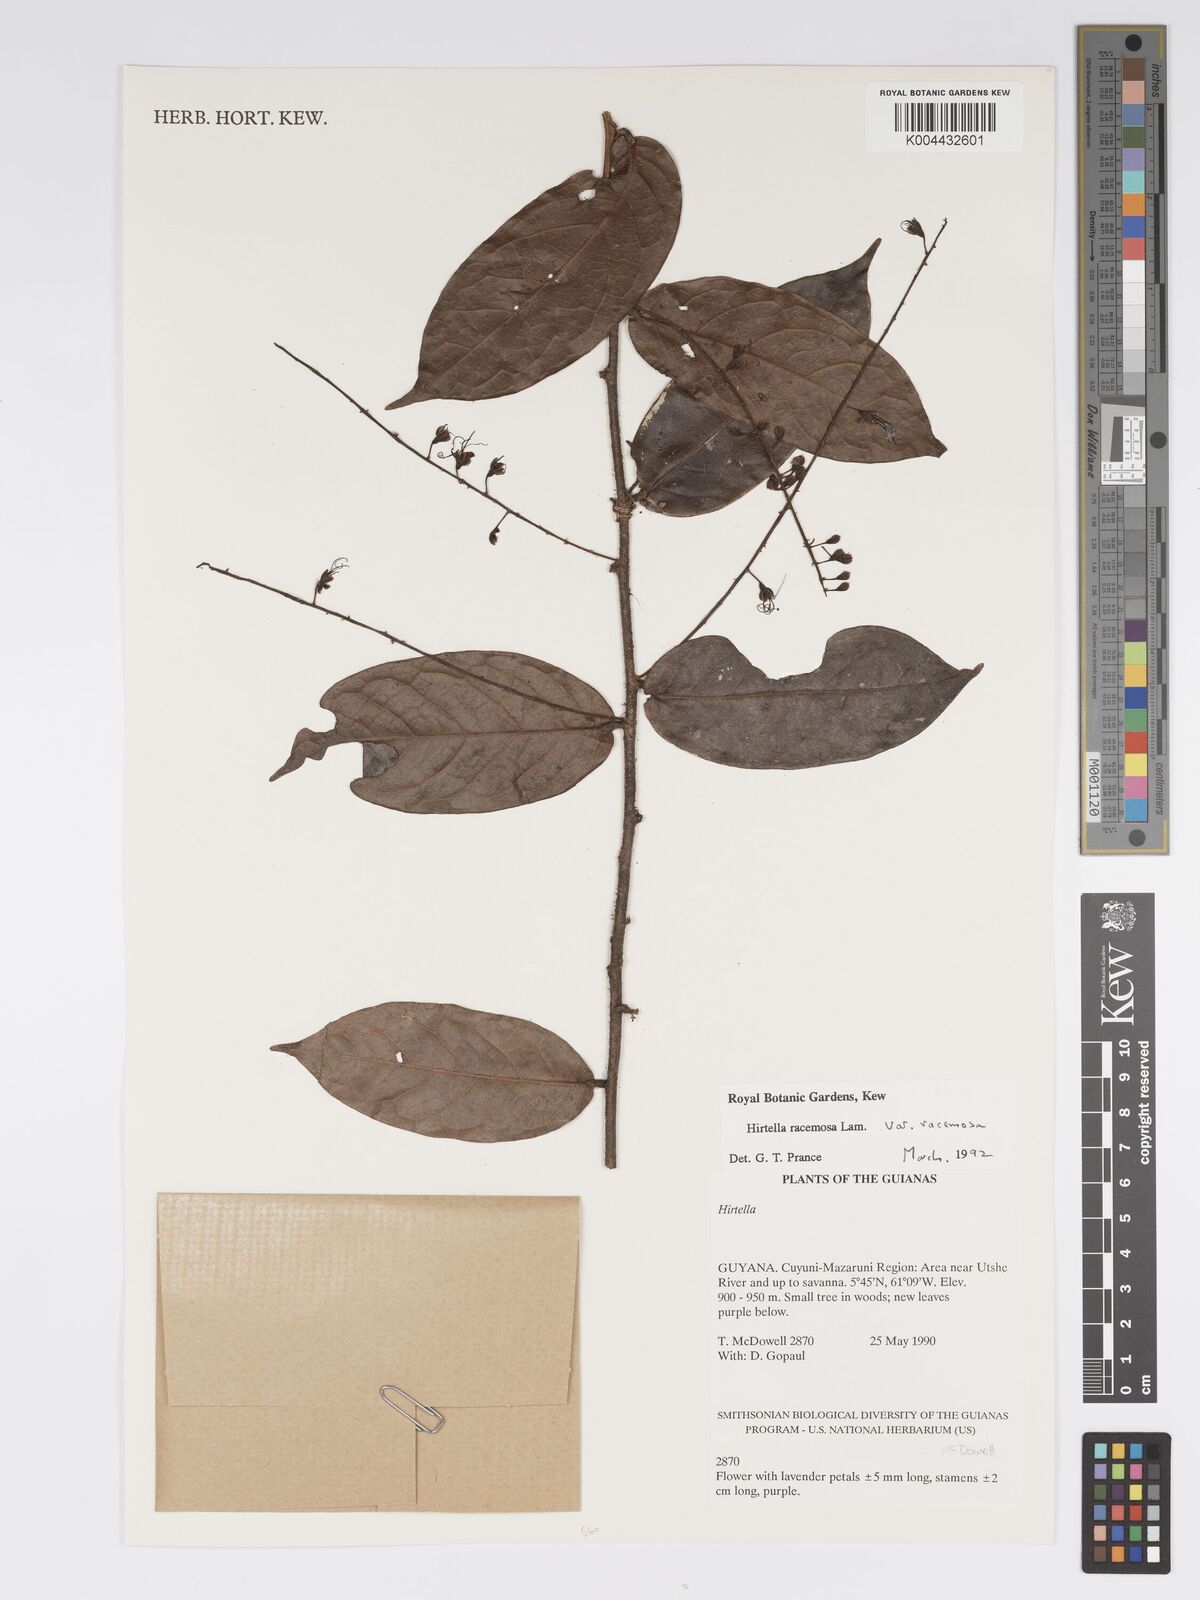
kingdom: Plantae
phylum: Tracheophyta
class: Magnoliopsida
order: Malpighiales
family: Chrysobalanaceae
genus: Hirtella
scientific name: Hirtella racemosa
